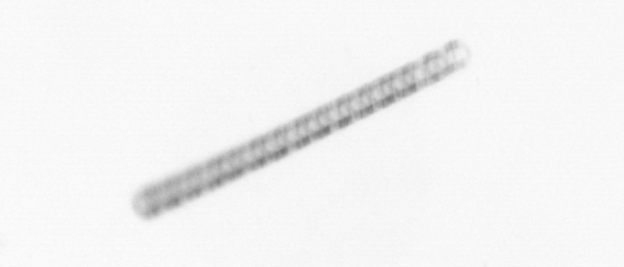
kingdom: Chromista
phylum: Ochrophyta
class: Bacillariophyceae
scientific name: Bacillariophyceae
